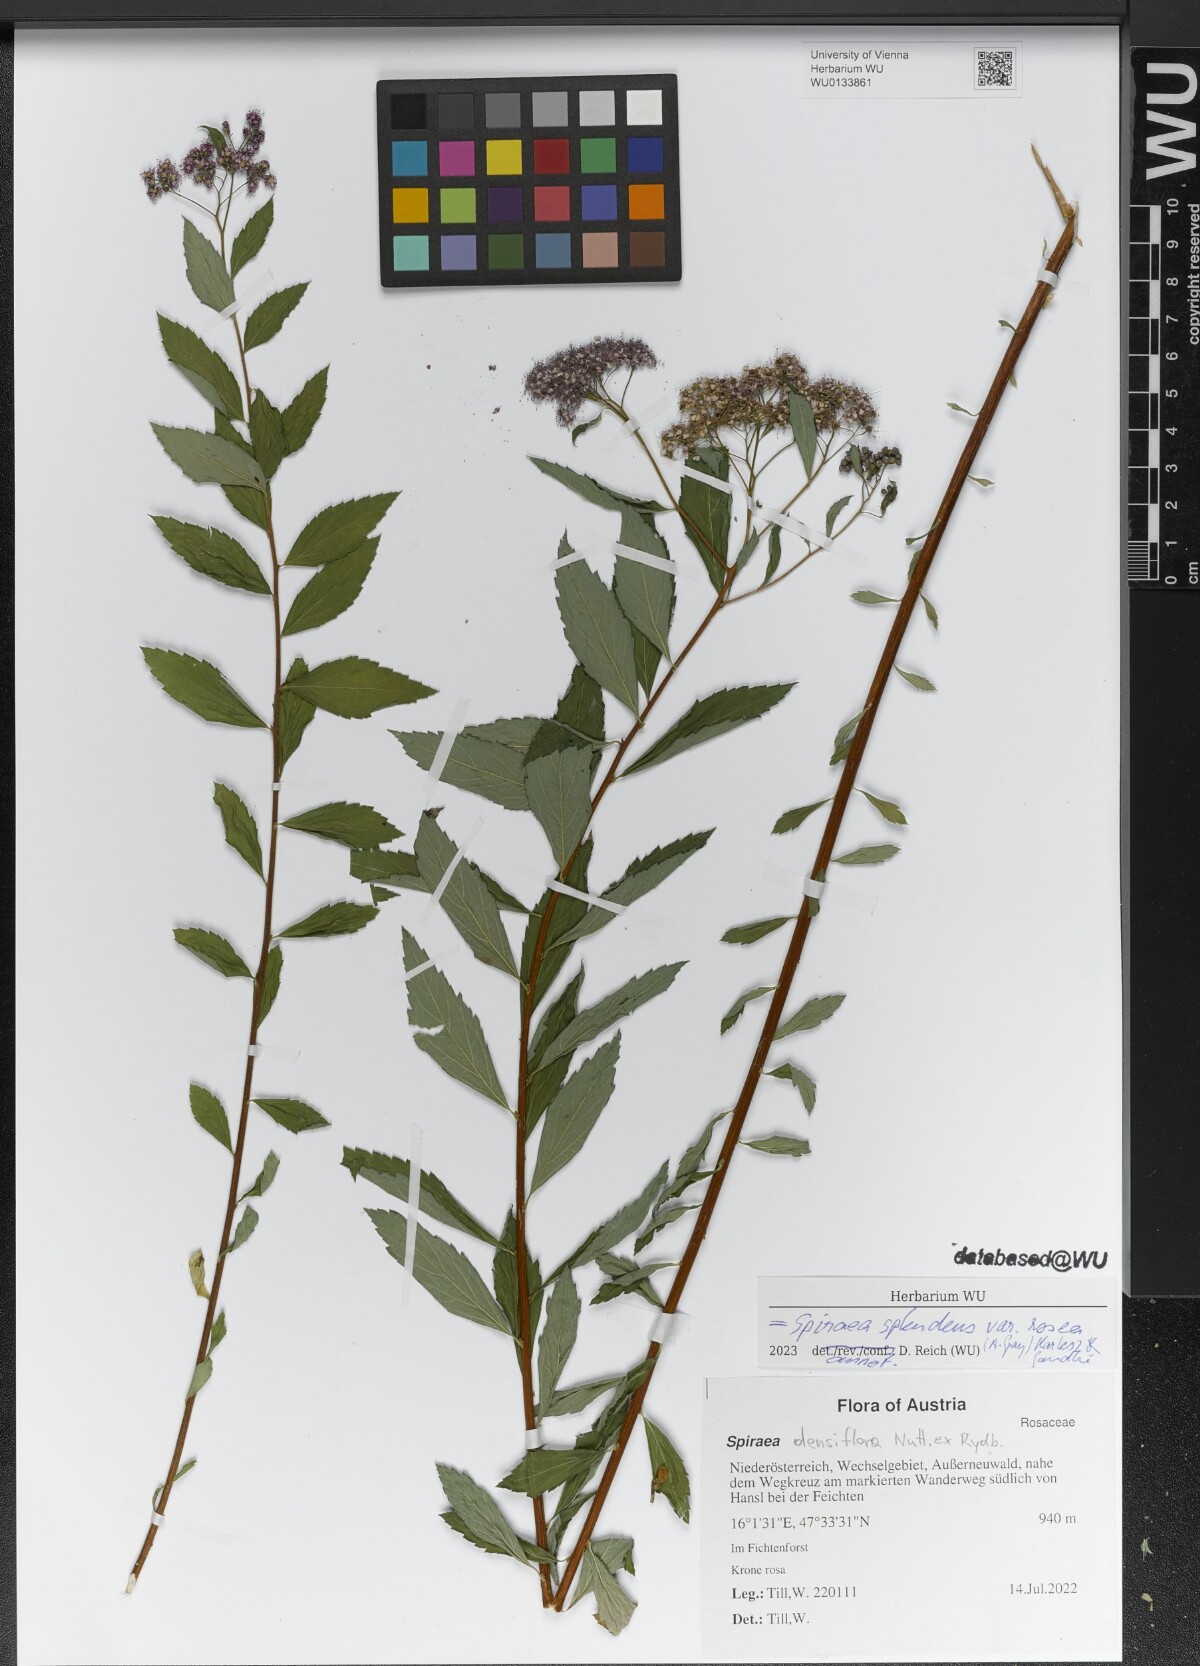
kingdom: Plantae
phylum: Tracheophyta
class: Magnoliopsida
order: Rosales
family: Rosaceae
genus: Spiraea
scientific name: Spiraea splendens
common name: Subalpine meadowsweet
